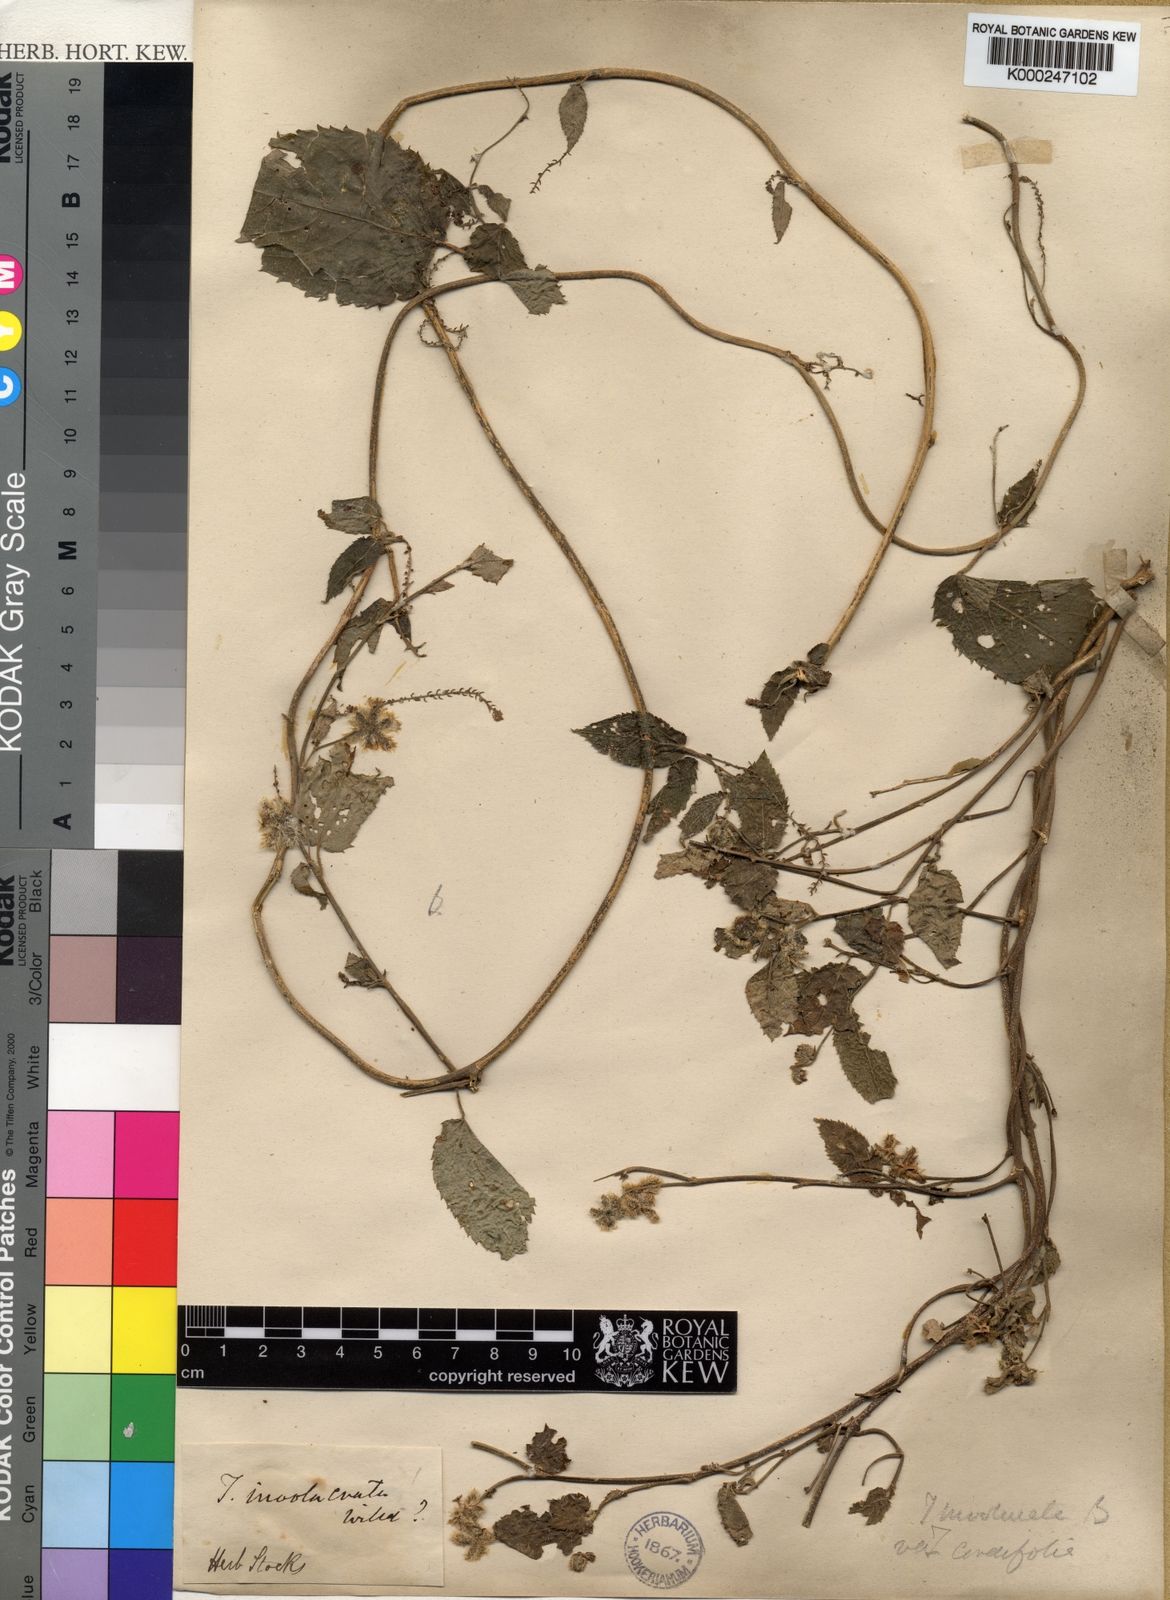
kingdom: Plantae
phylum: Tracheophyta
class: Magnoliopsida
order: Malpighiales
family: Euphorbiaceae
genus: Tragia
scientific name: Tragia montana
